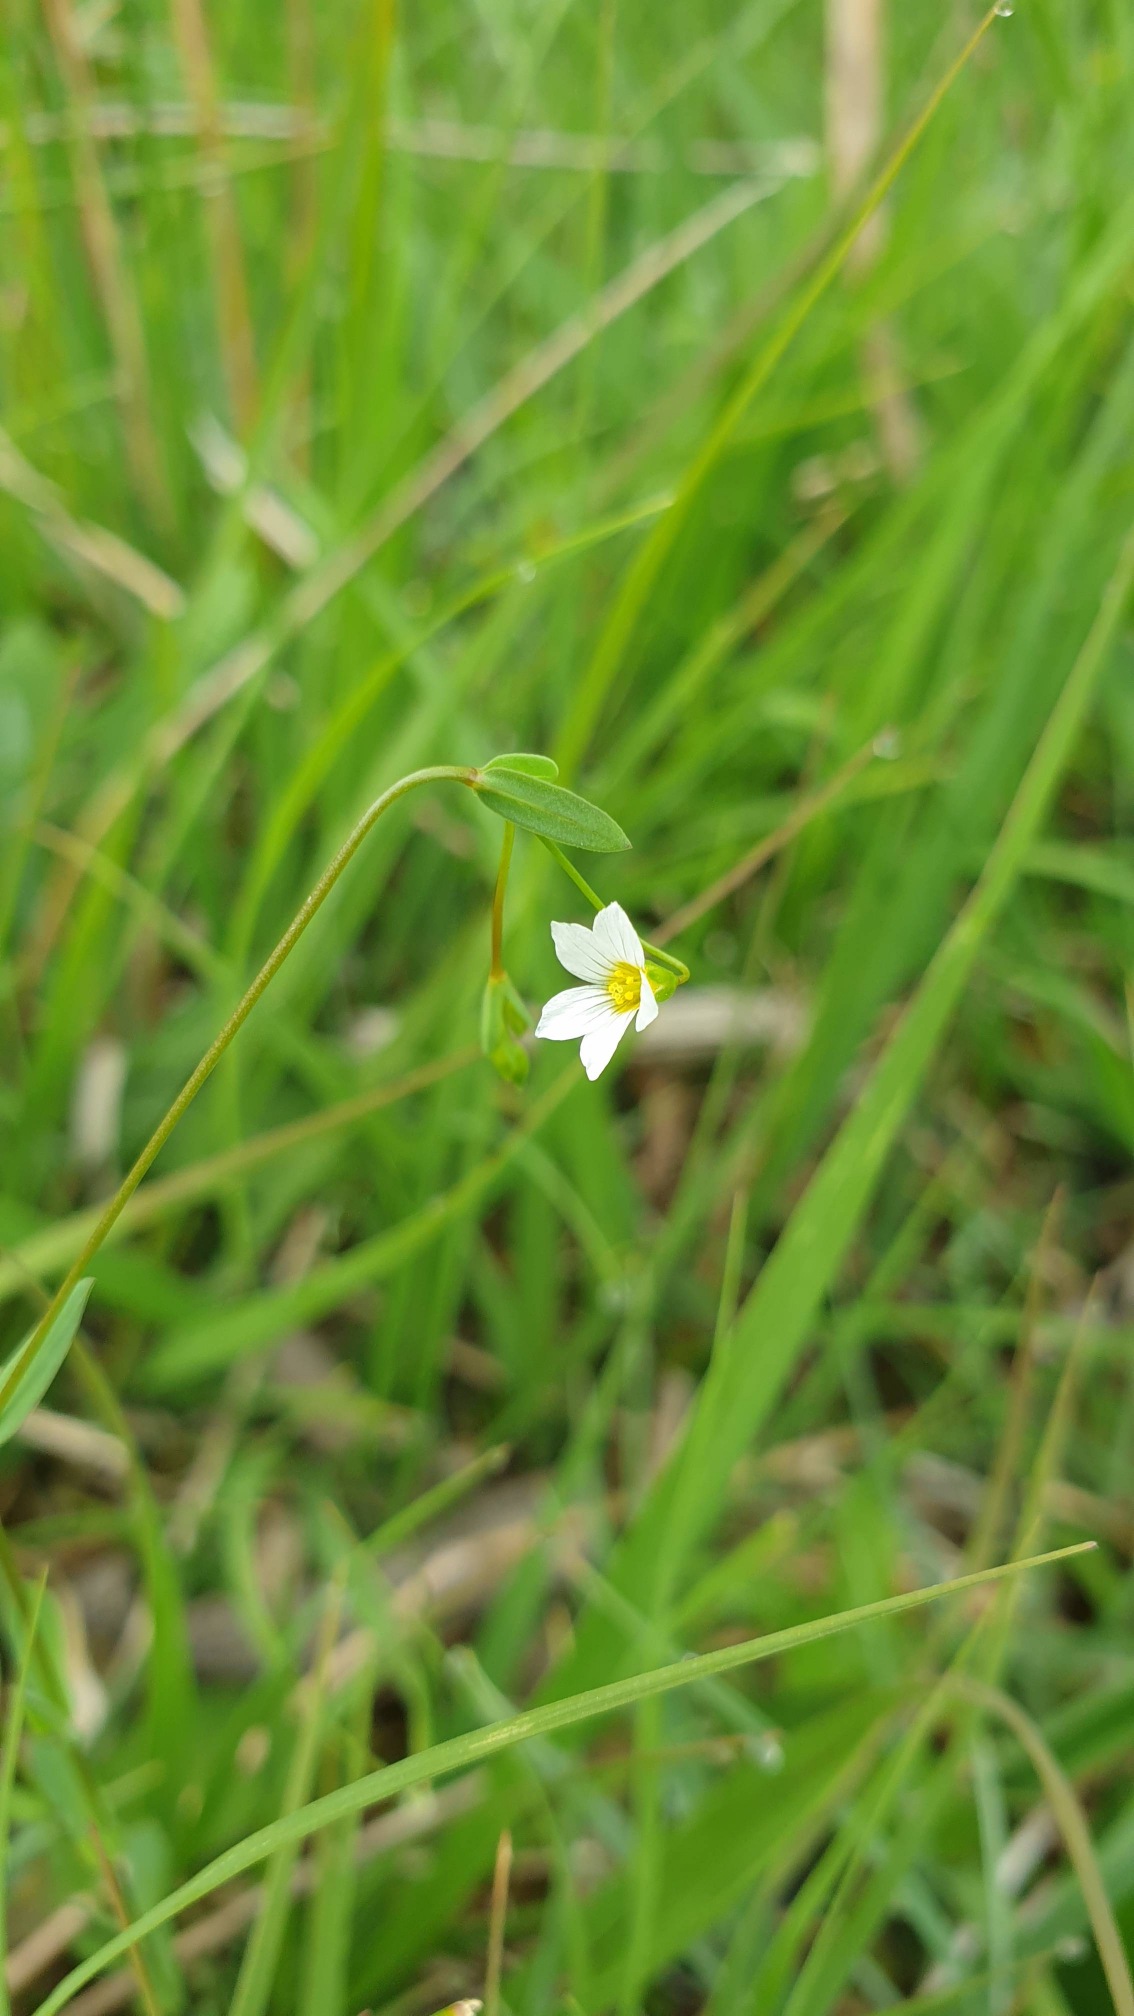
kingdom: Plantae
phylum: Tracheophyta
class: Magnoliopsida
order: Malpighiales
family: Linaceae
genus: Linum
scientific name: Linum catharticum
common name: Vild hør
